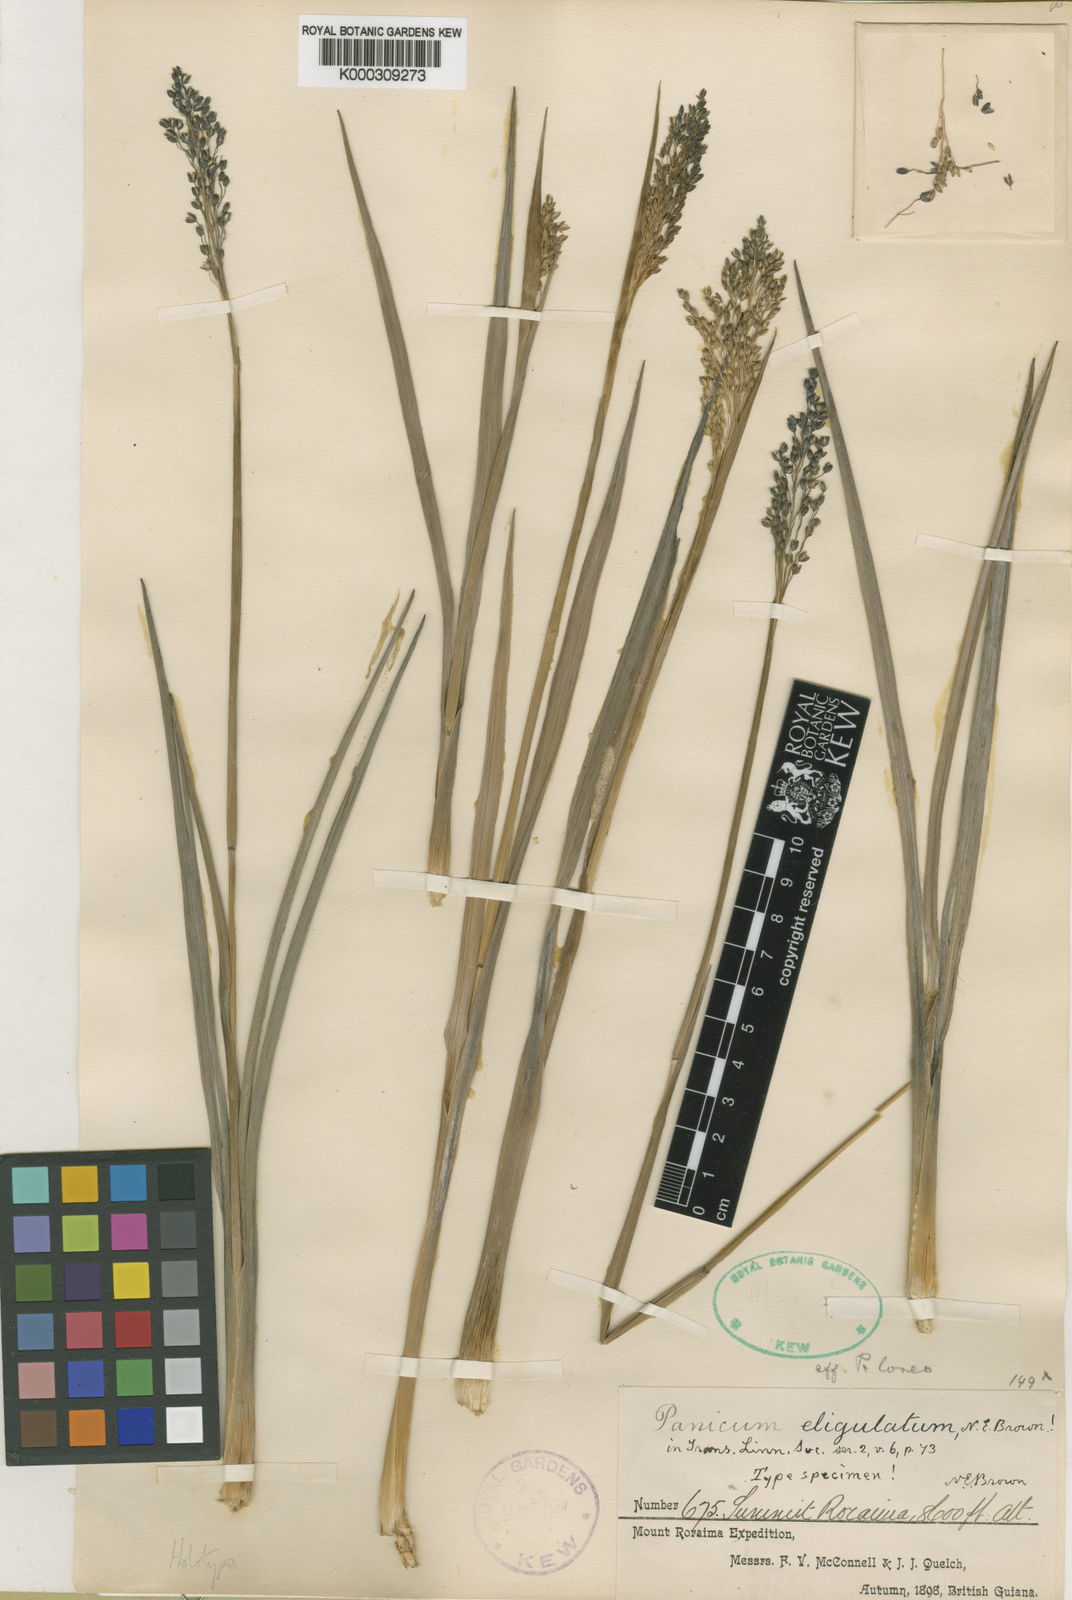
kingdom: Plantae
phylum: Tracheophyta
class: Liliopsida
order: Poales
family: Poaceae
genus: Panicum
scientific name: Panicum
